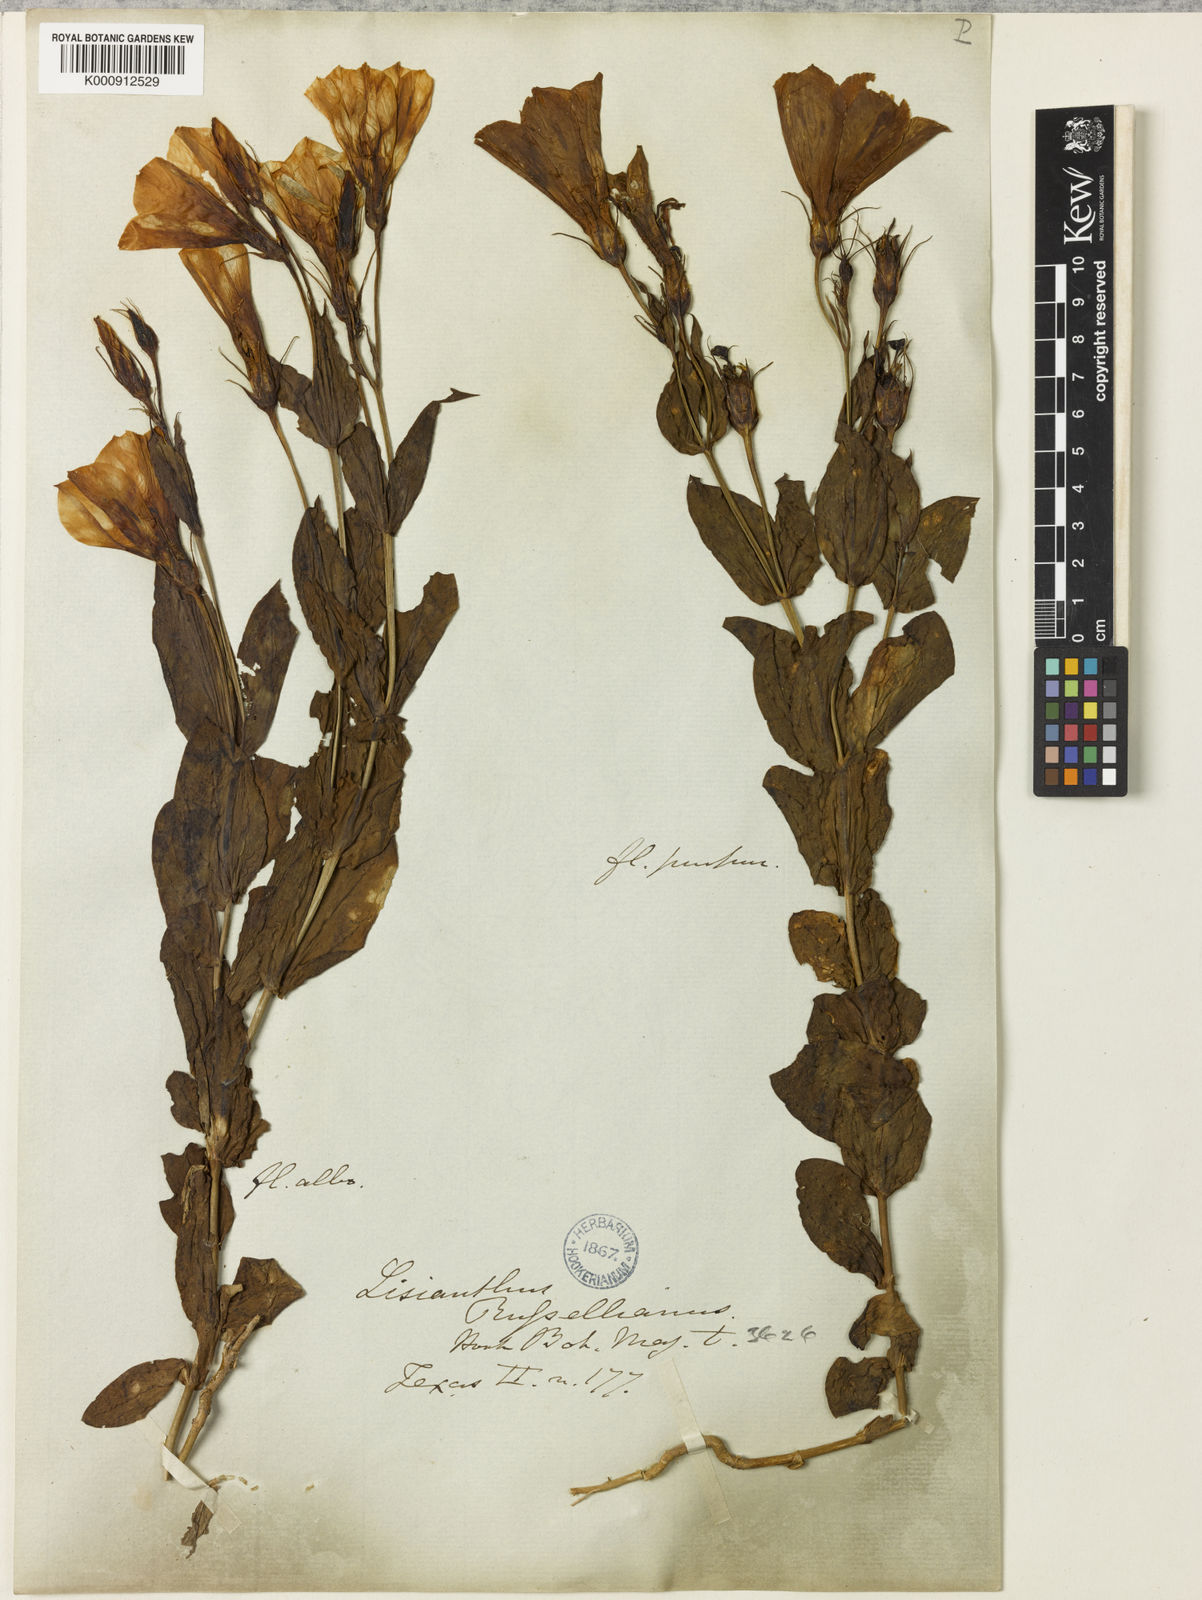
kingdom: Plantae
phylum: Tracheophyta
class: Magnoliopsida
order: Gentianales
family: Gentianaceae
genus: Eustoma
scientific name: Eustoma russellianum
